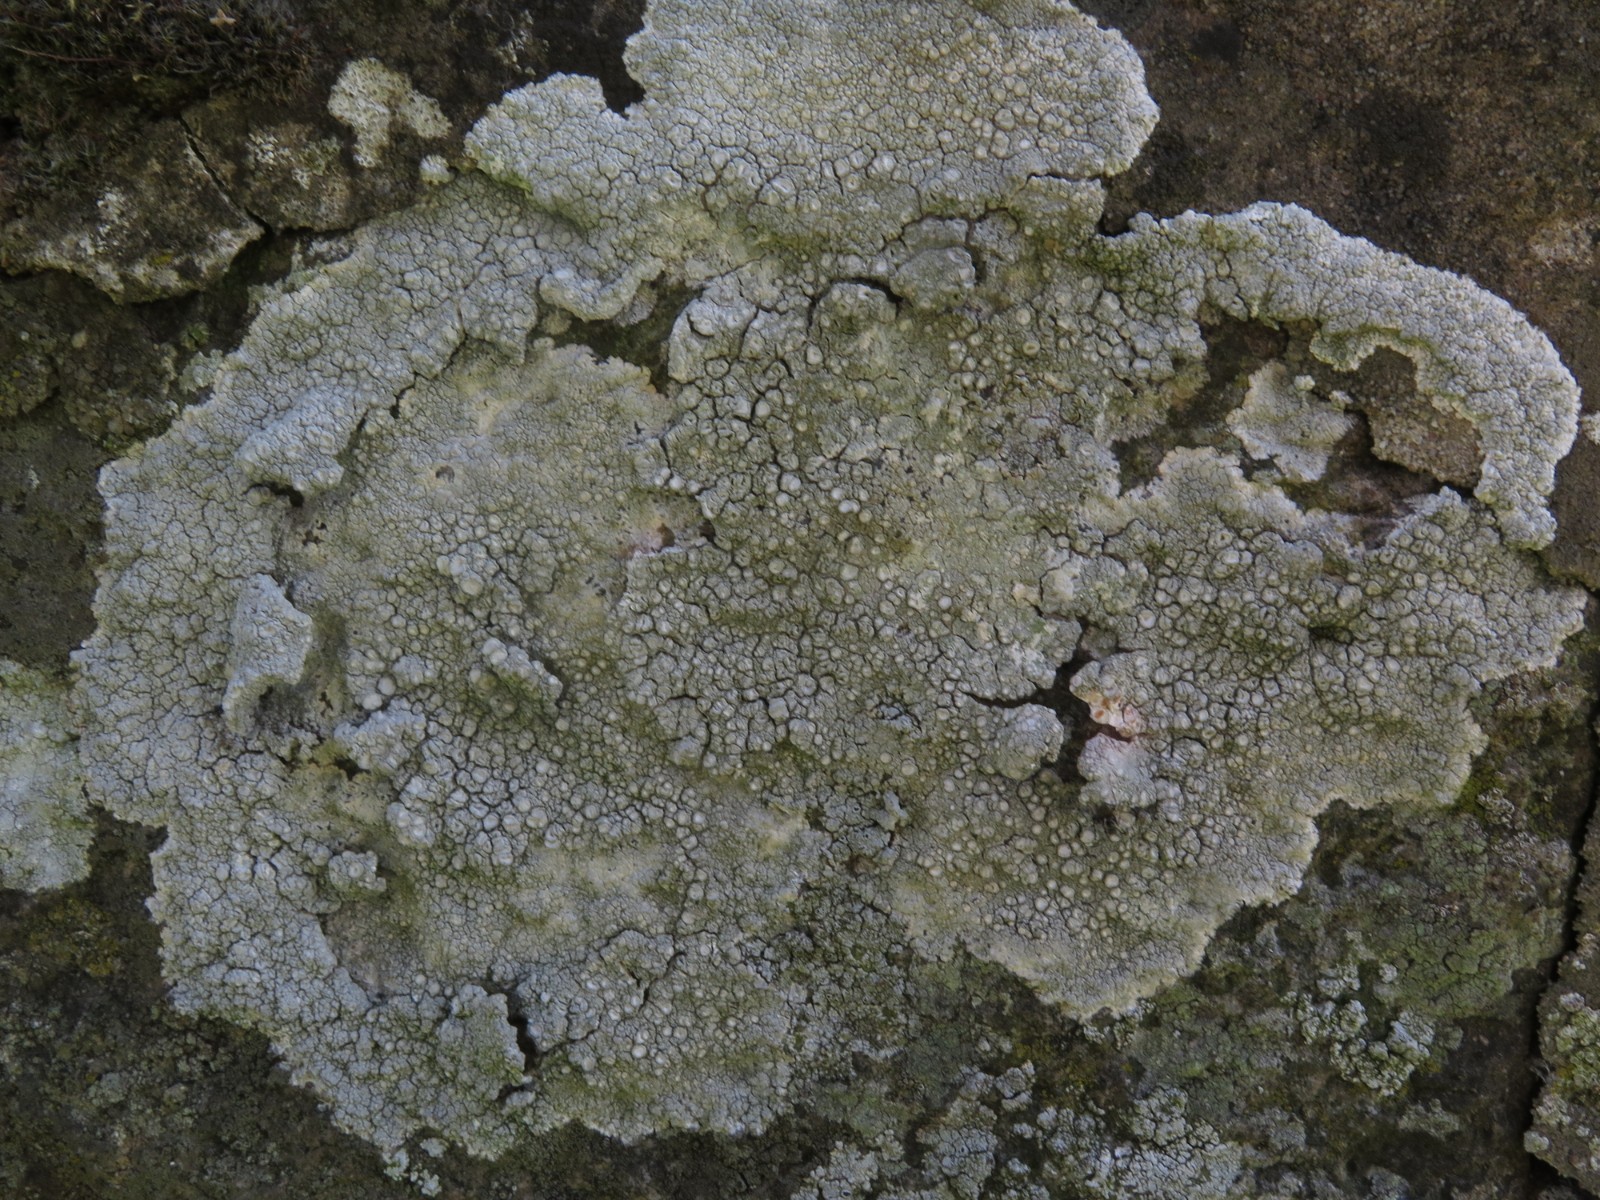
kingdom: Fungi
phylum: Ascomycota
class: Lecanoromycetes
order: Pertusariales
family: Ochrolechiaceae
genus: Ochrolechia
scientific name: Ochrolechia parella
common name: almindelig blegskivelav
